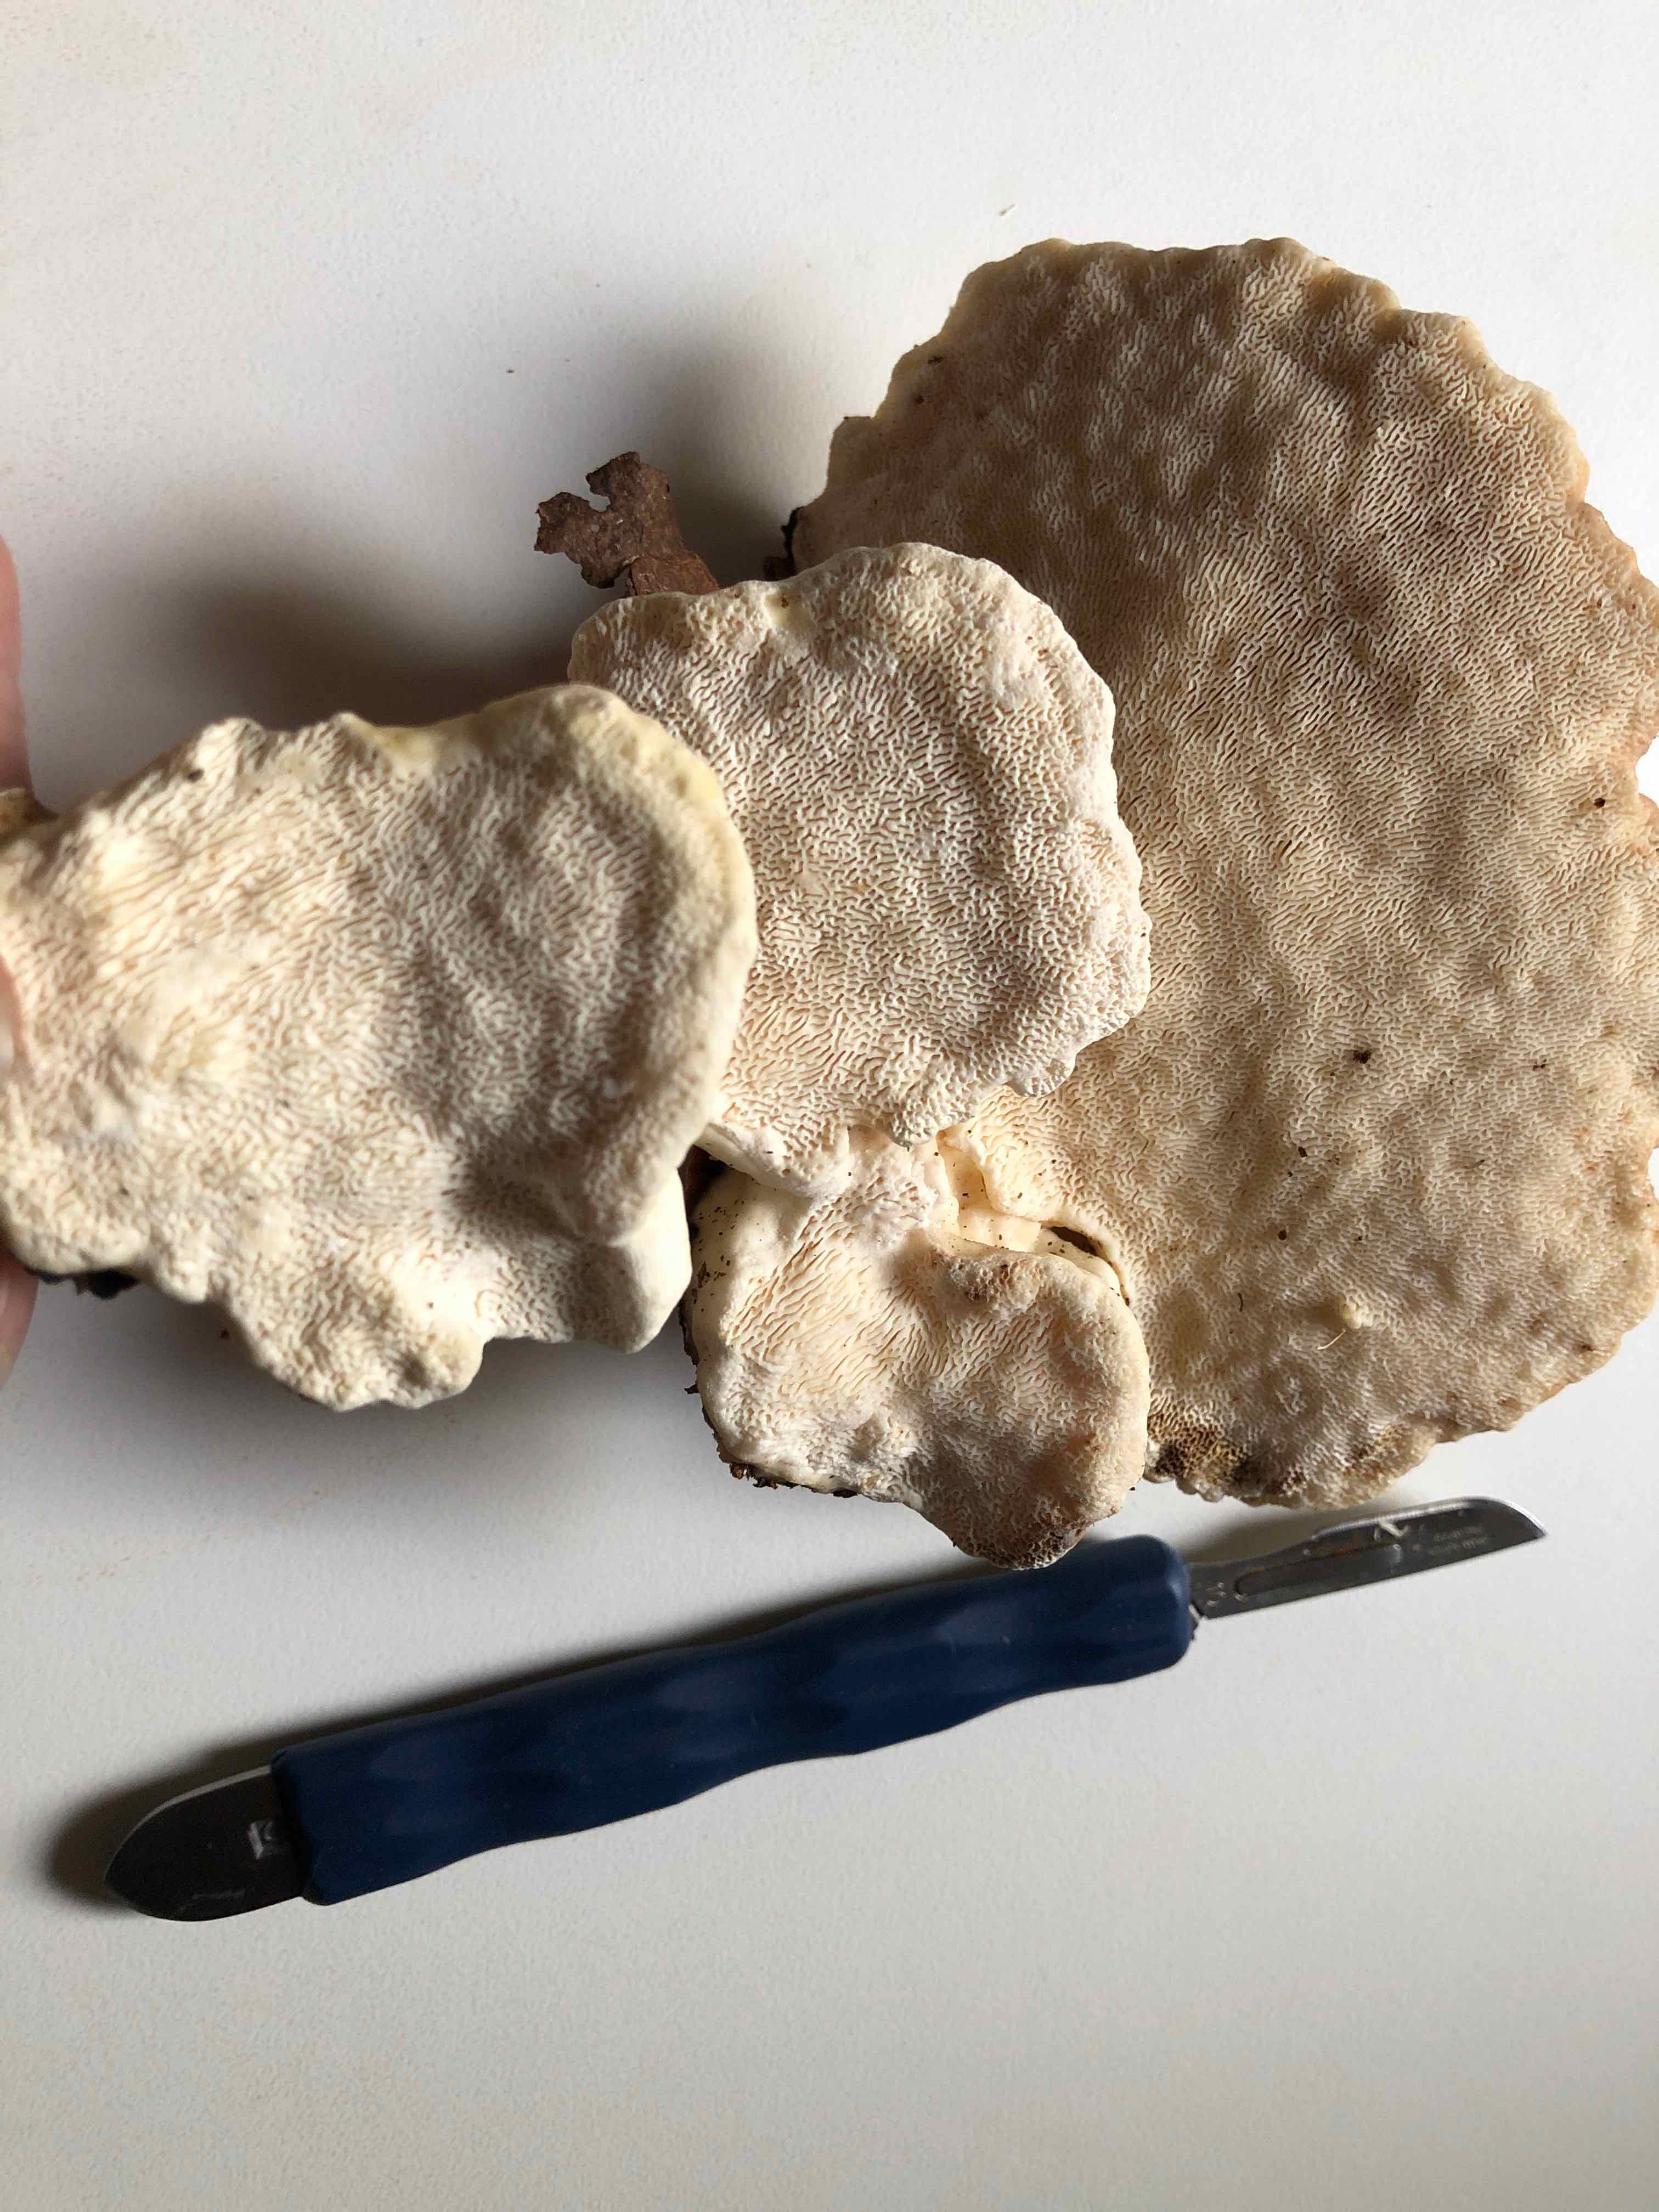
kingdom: Fungi
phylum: Basidiomycota
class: Agaricomycetes
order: Polyporales
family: Polyporaceae
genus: Trametes
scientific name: Trametes gibbosa
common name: puklet læderporesvamp
